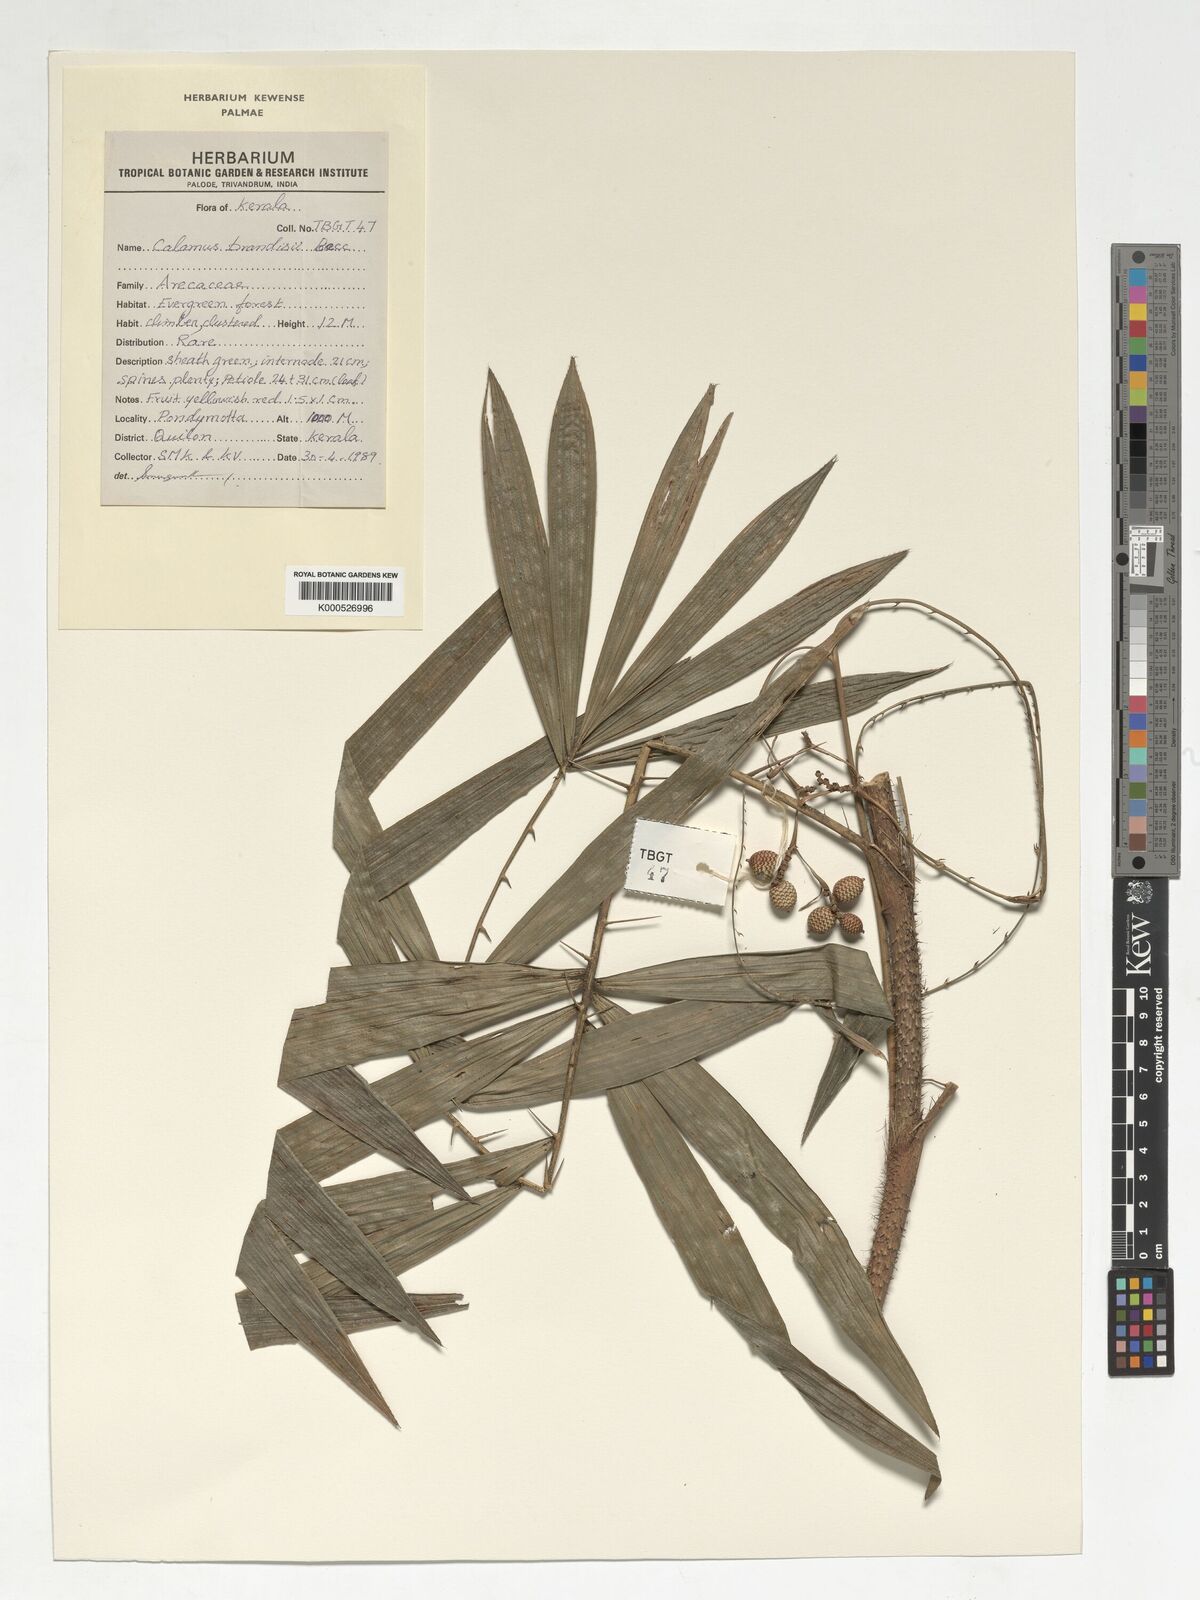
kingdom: Plantae
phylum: Tracheophyta
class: Liliopsida
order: Arecales
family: Arecaceae
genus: Calamus
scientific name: Calamus brandisii
